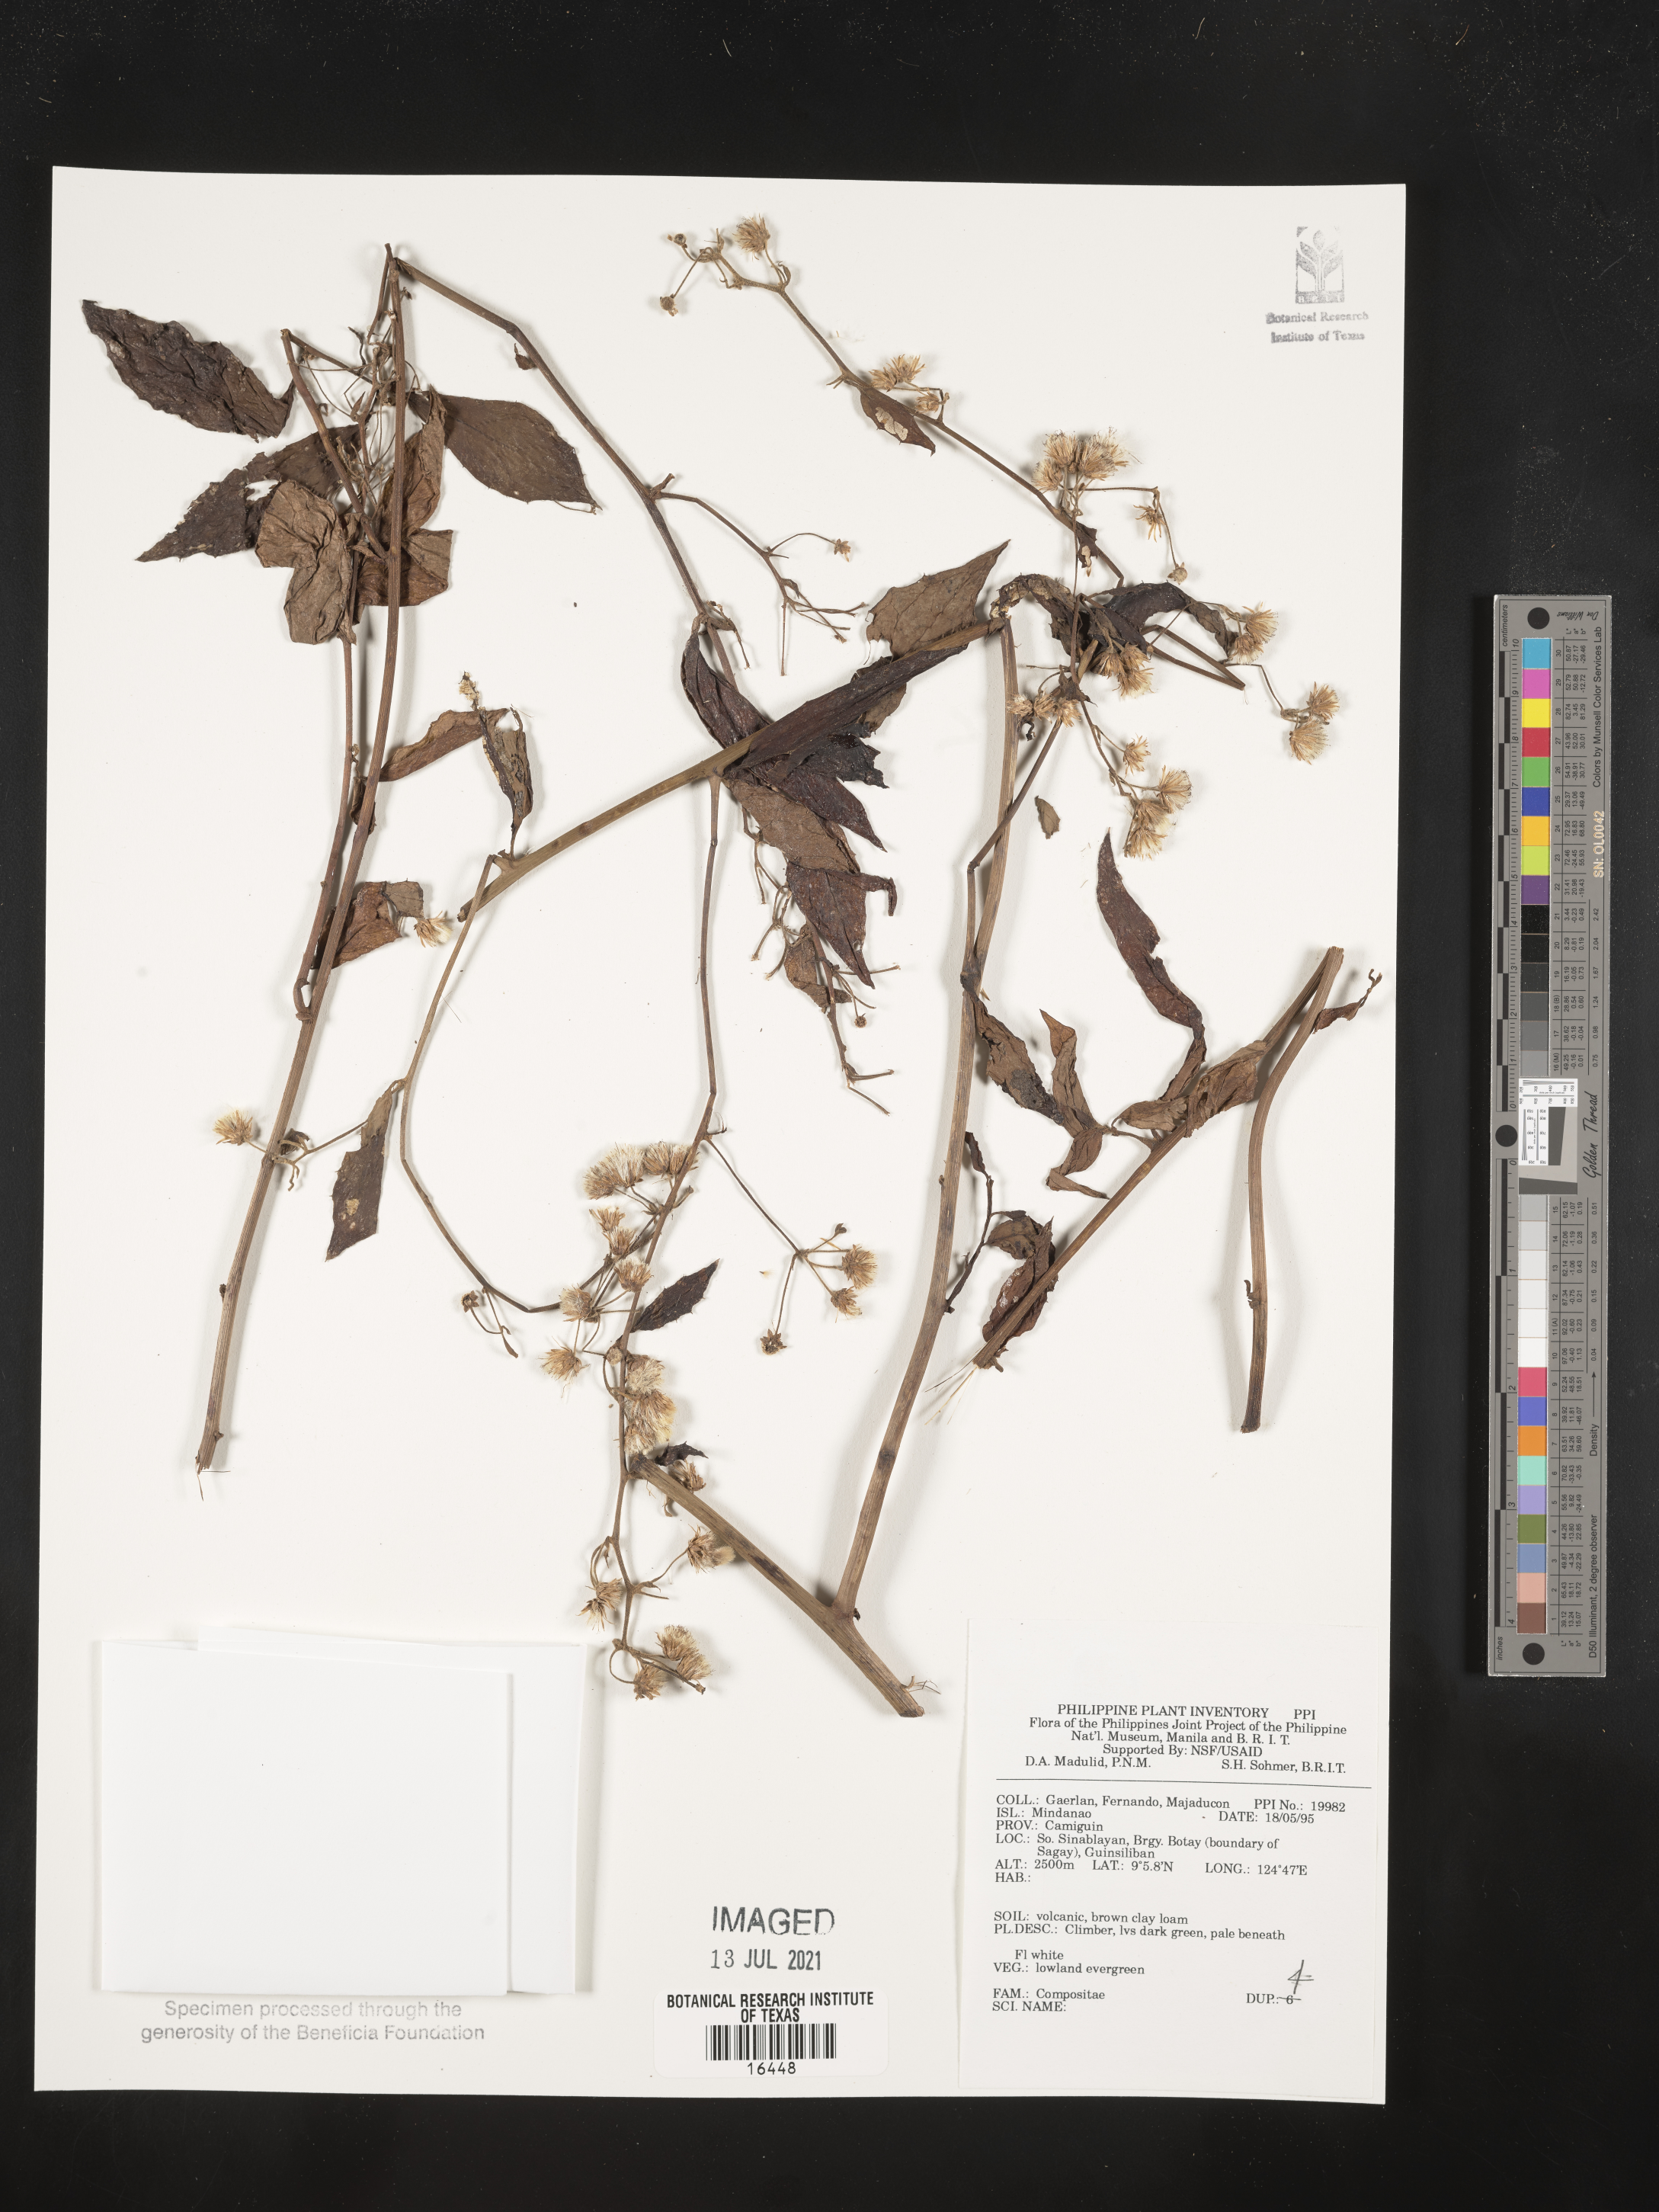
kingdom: Plantae
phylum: Tracheophyta
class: Magnoliopsida
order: Asterales
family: Asteraceae
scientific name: Asteraceae
